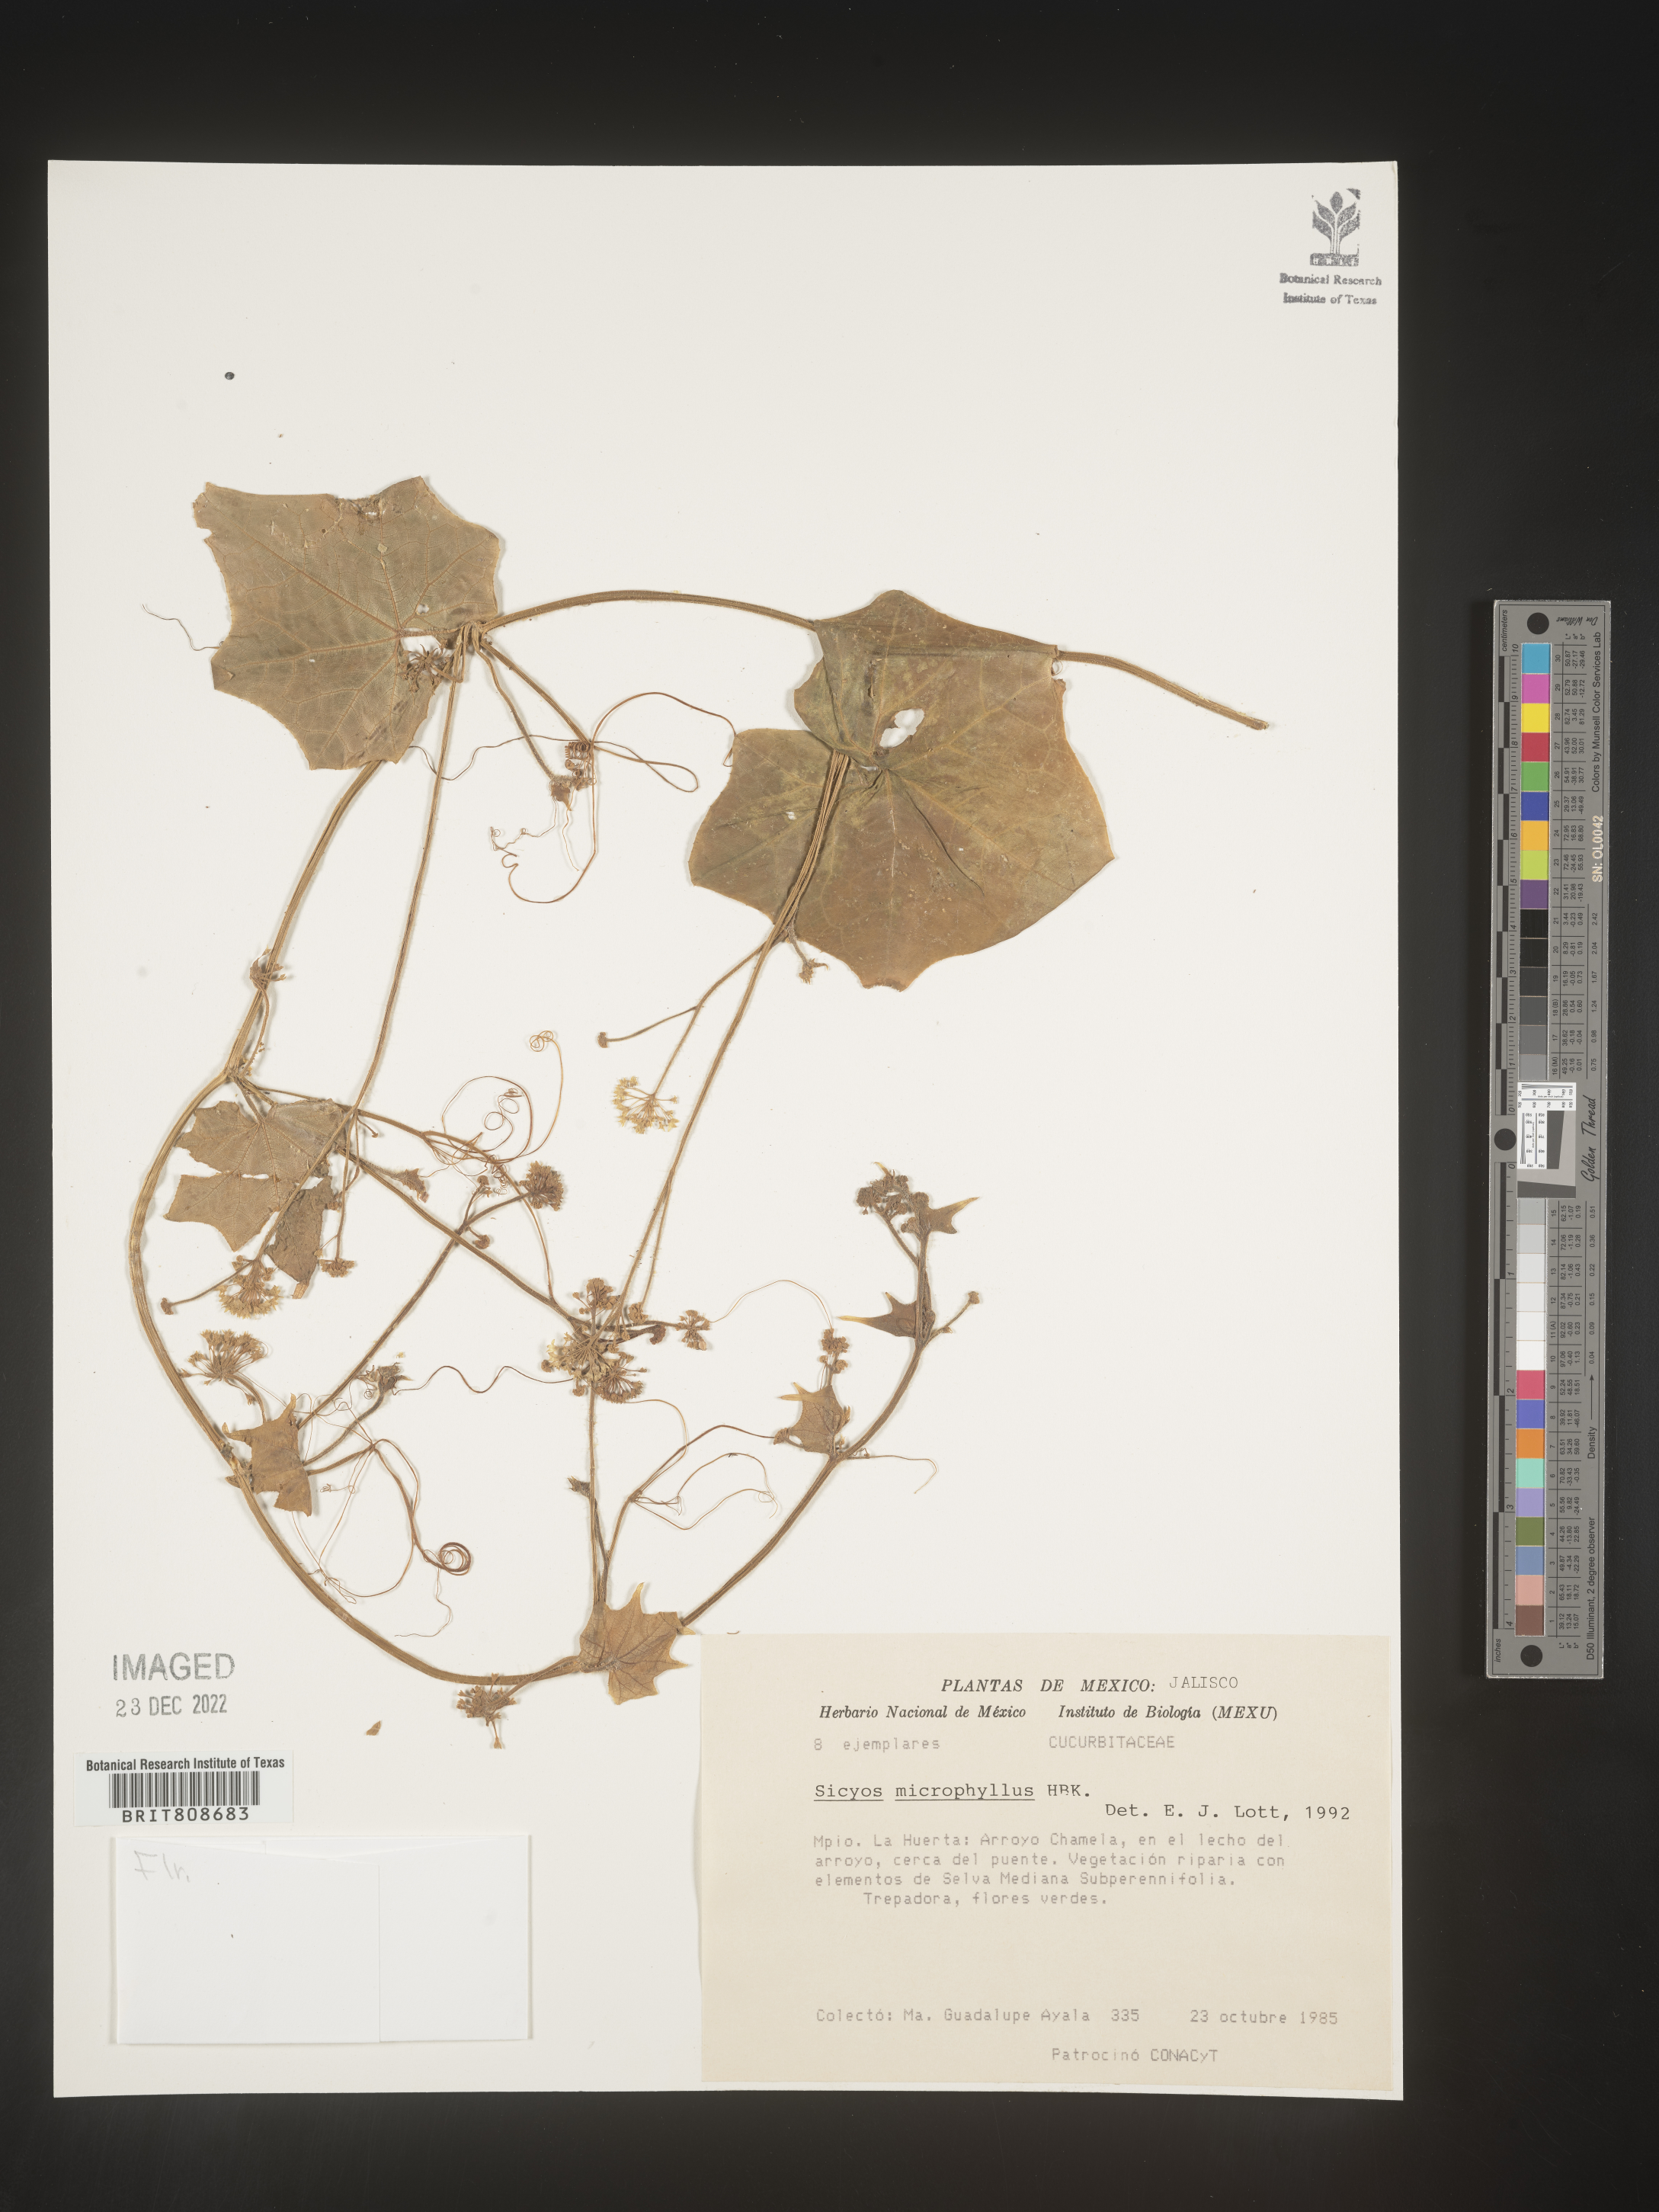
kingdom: Plantae
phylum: Tracheophyta
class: Magnoliopsida
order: Cucurbitales
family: Cucurbitaceae
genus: Sicyos
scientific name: Sicyos
